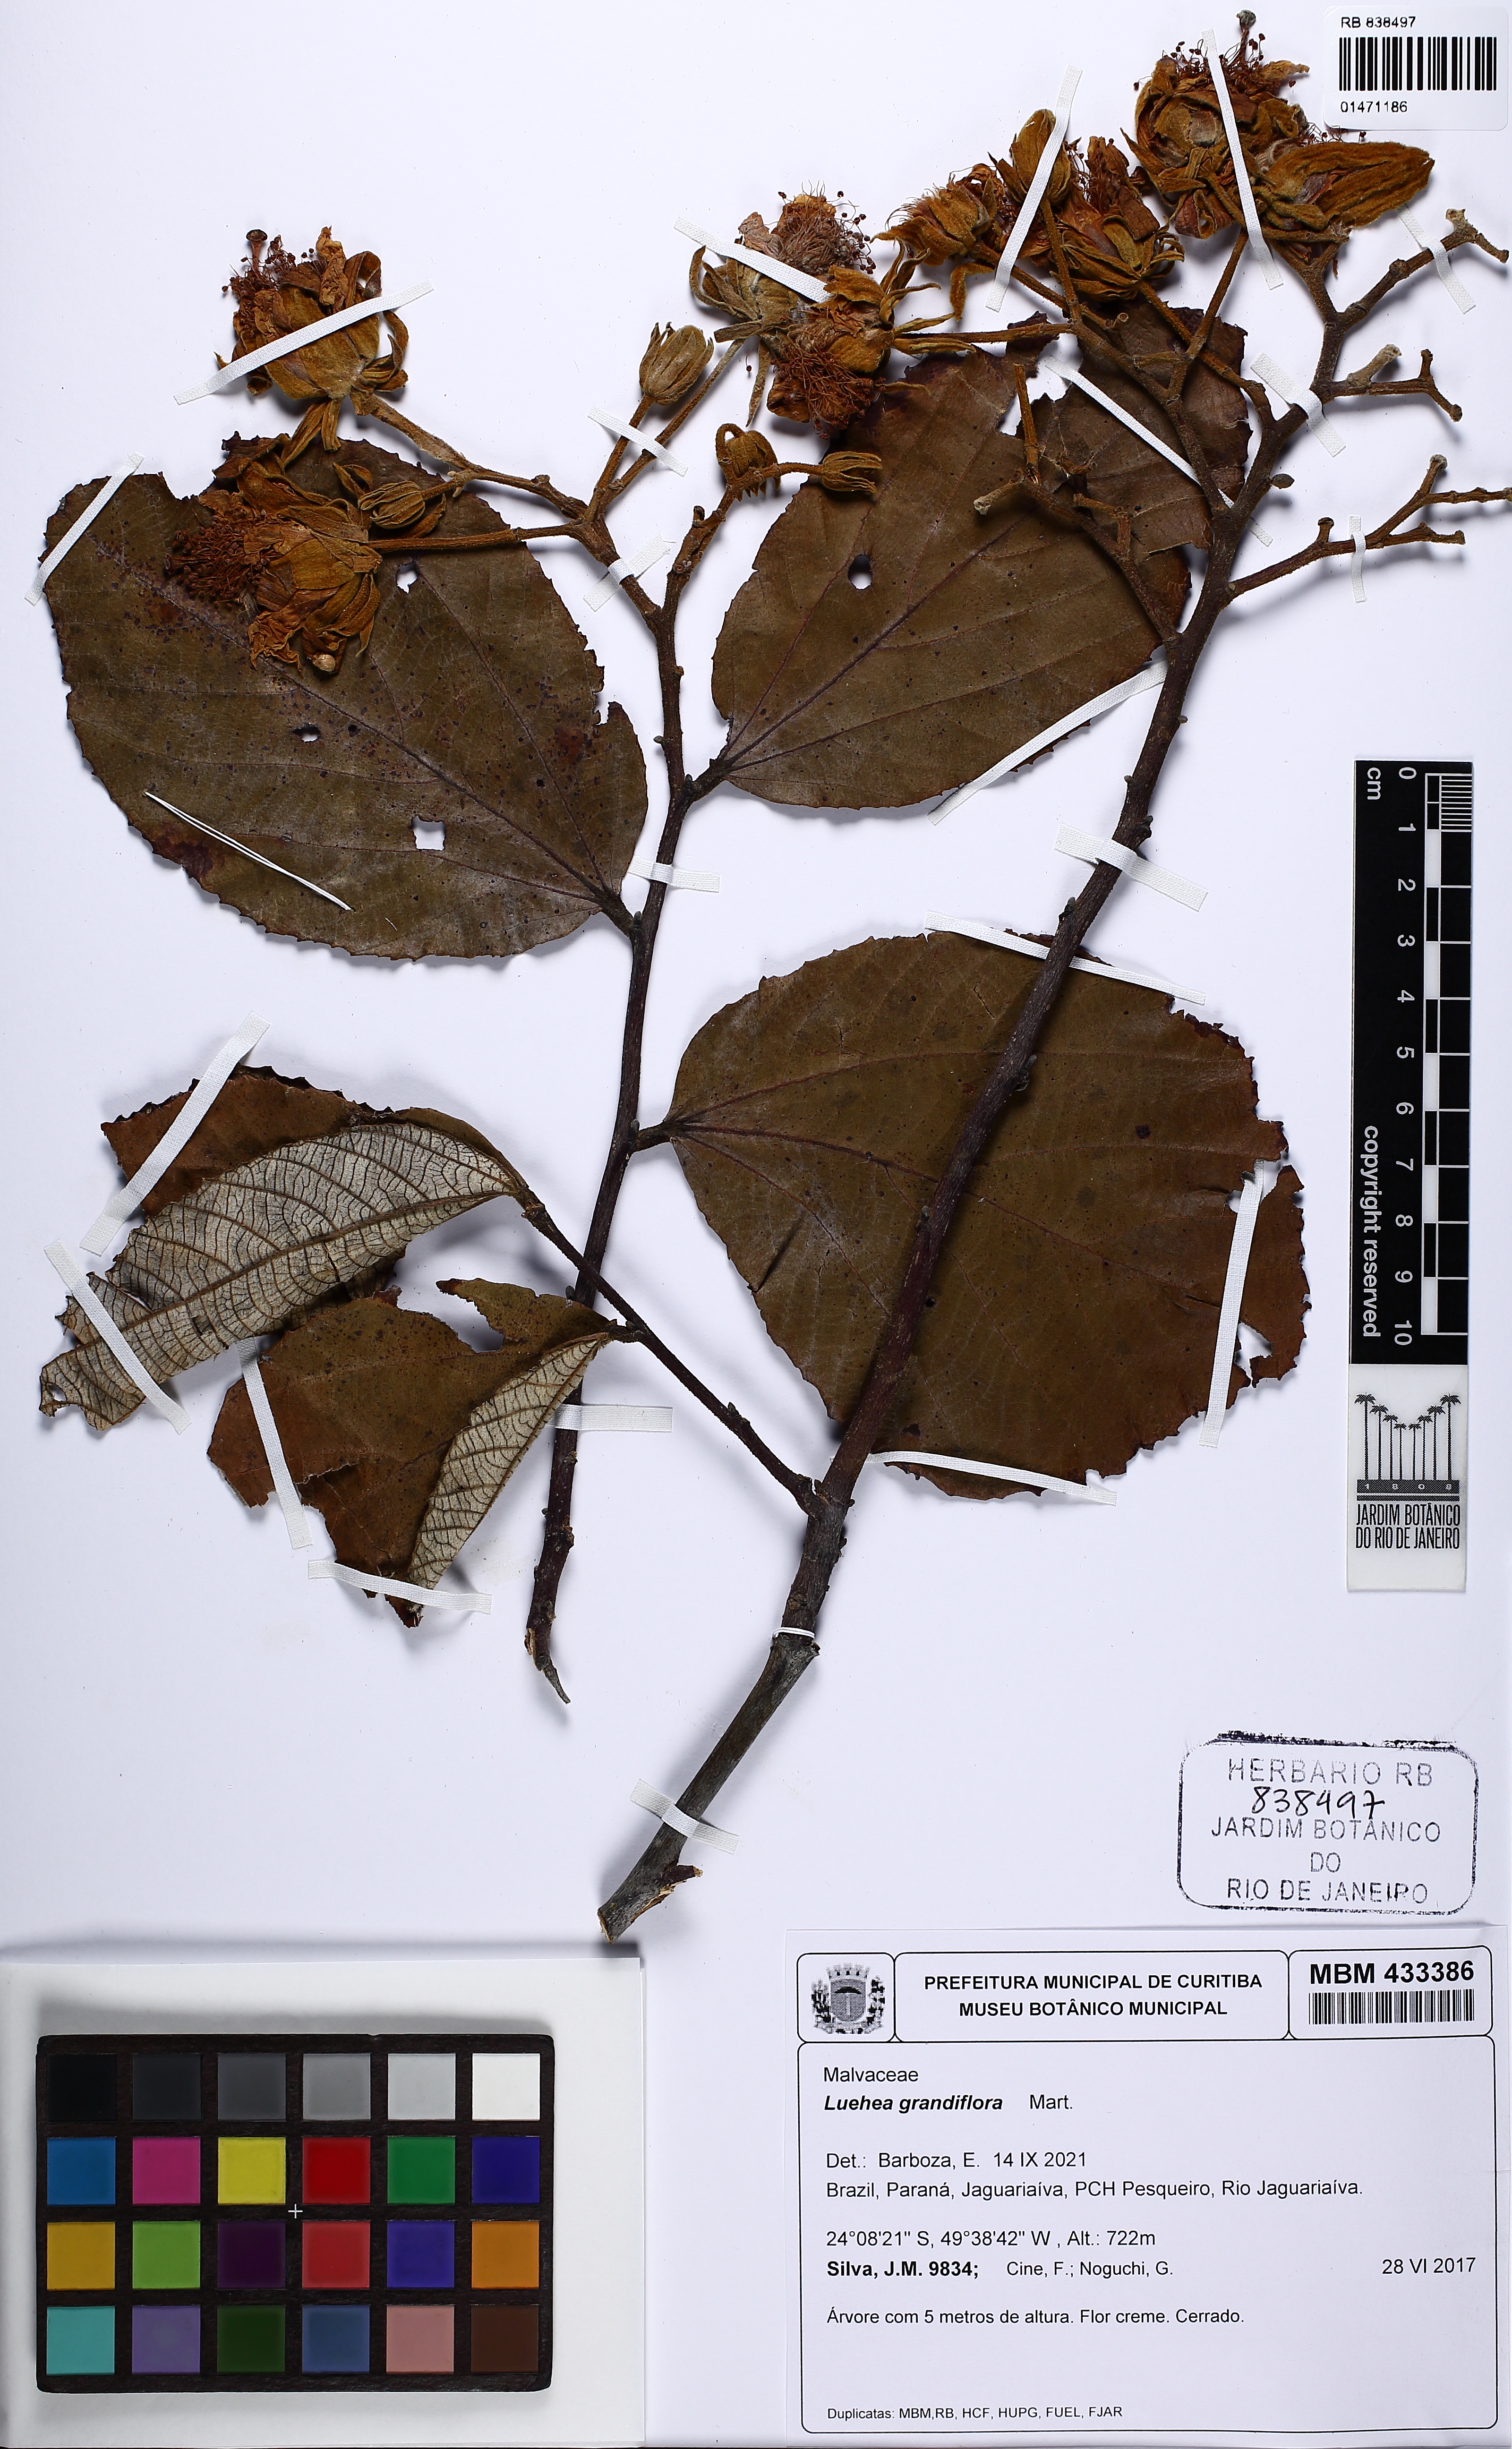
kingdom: Plantae
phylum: Tracheophyta
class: Magnoliopsida
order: Malvales
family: Malvaceae
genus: Luehea
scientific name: Luehea grandiflora
